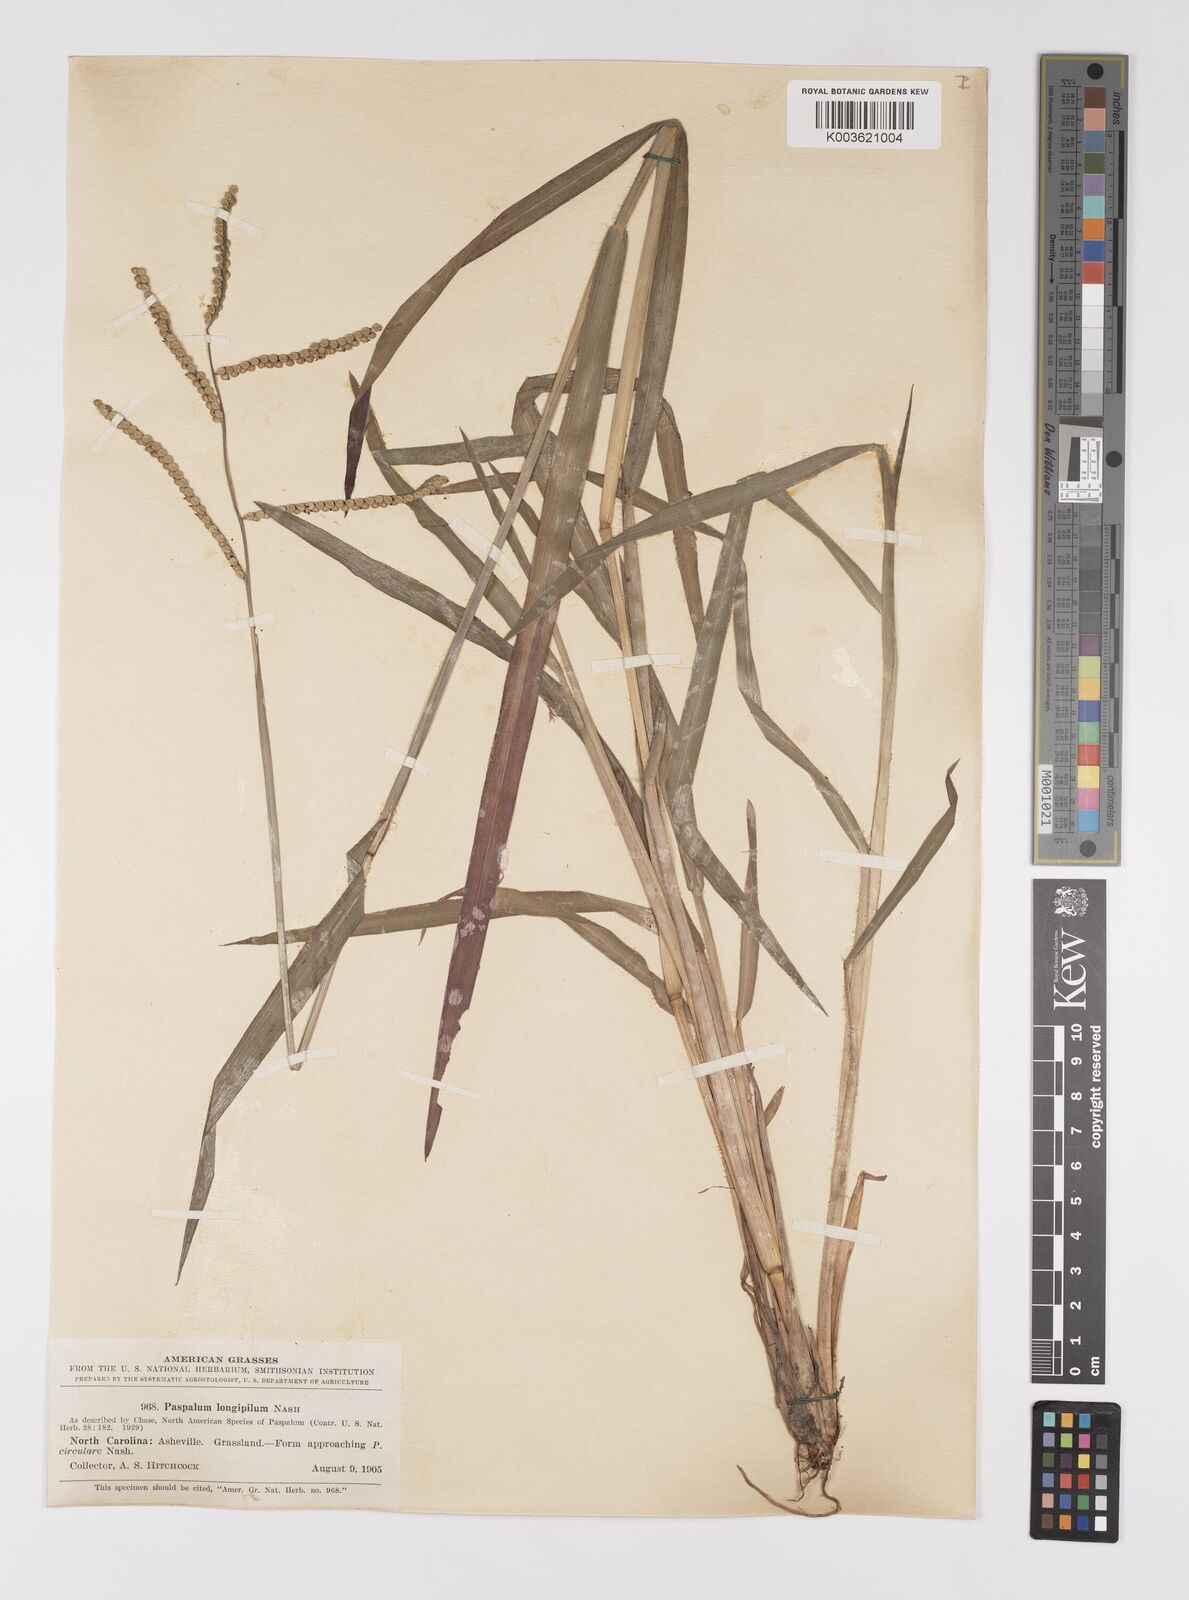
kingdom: Plantae
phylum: Tracheophyta
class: Liliopsida
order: Poales
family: Poaceae
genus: Paspalum
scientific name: Paspalum laeve
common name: Field paspalum
